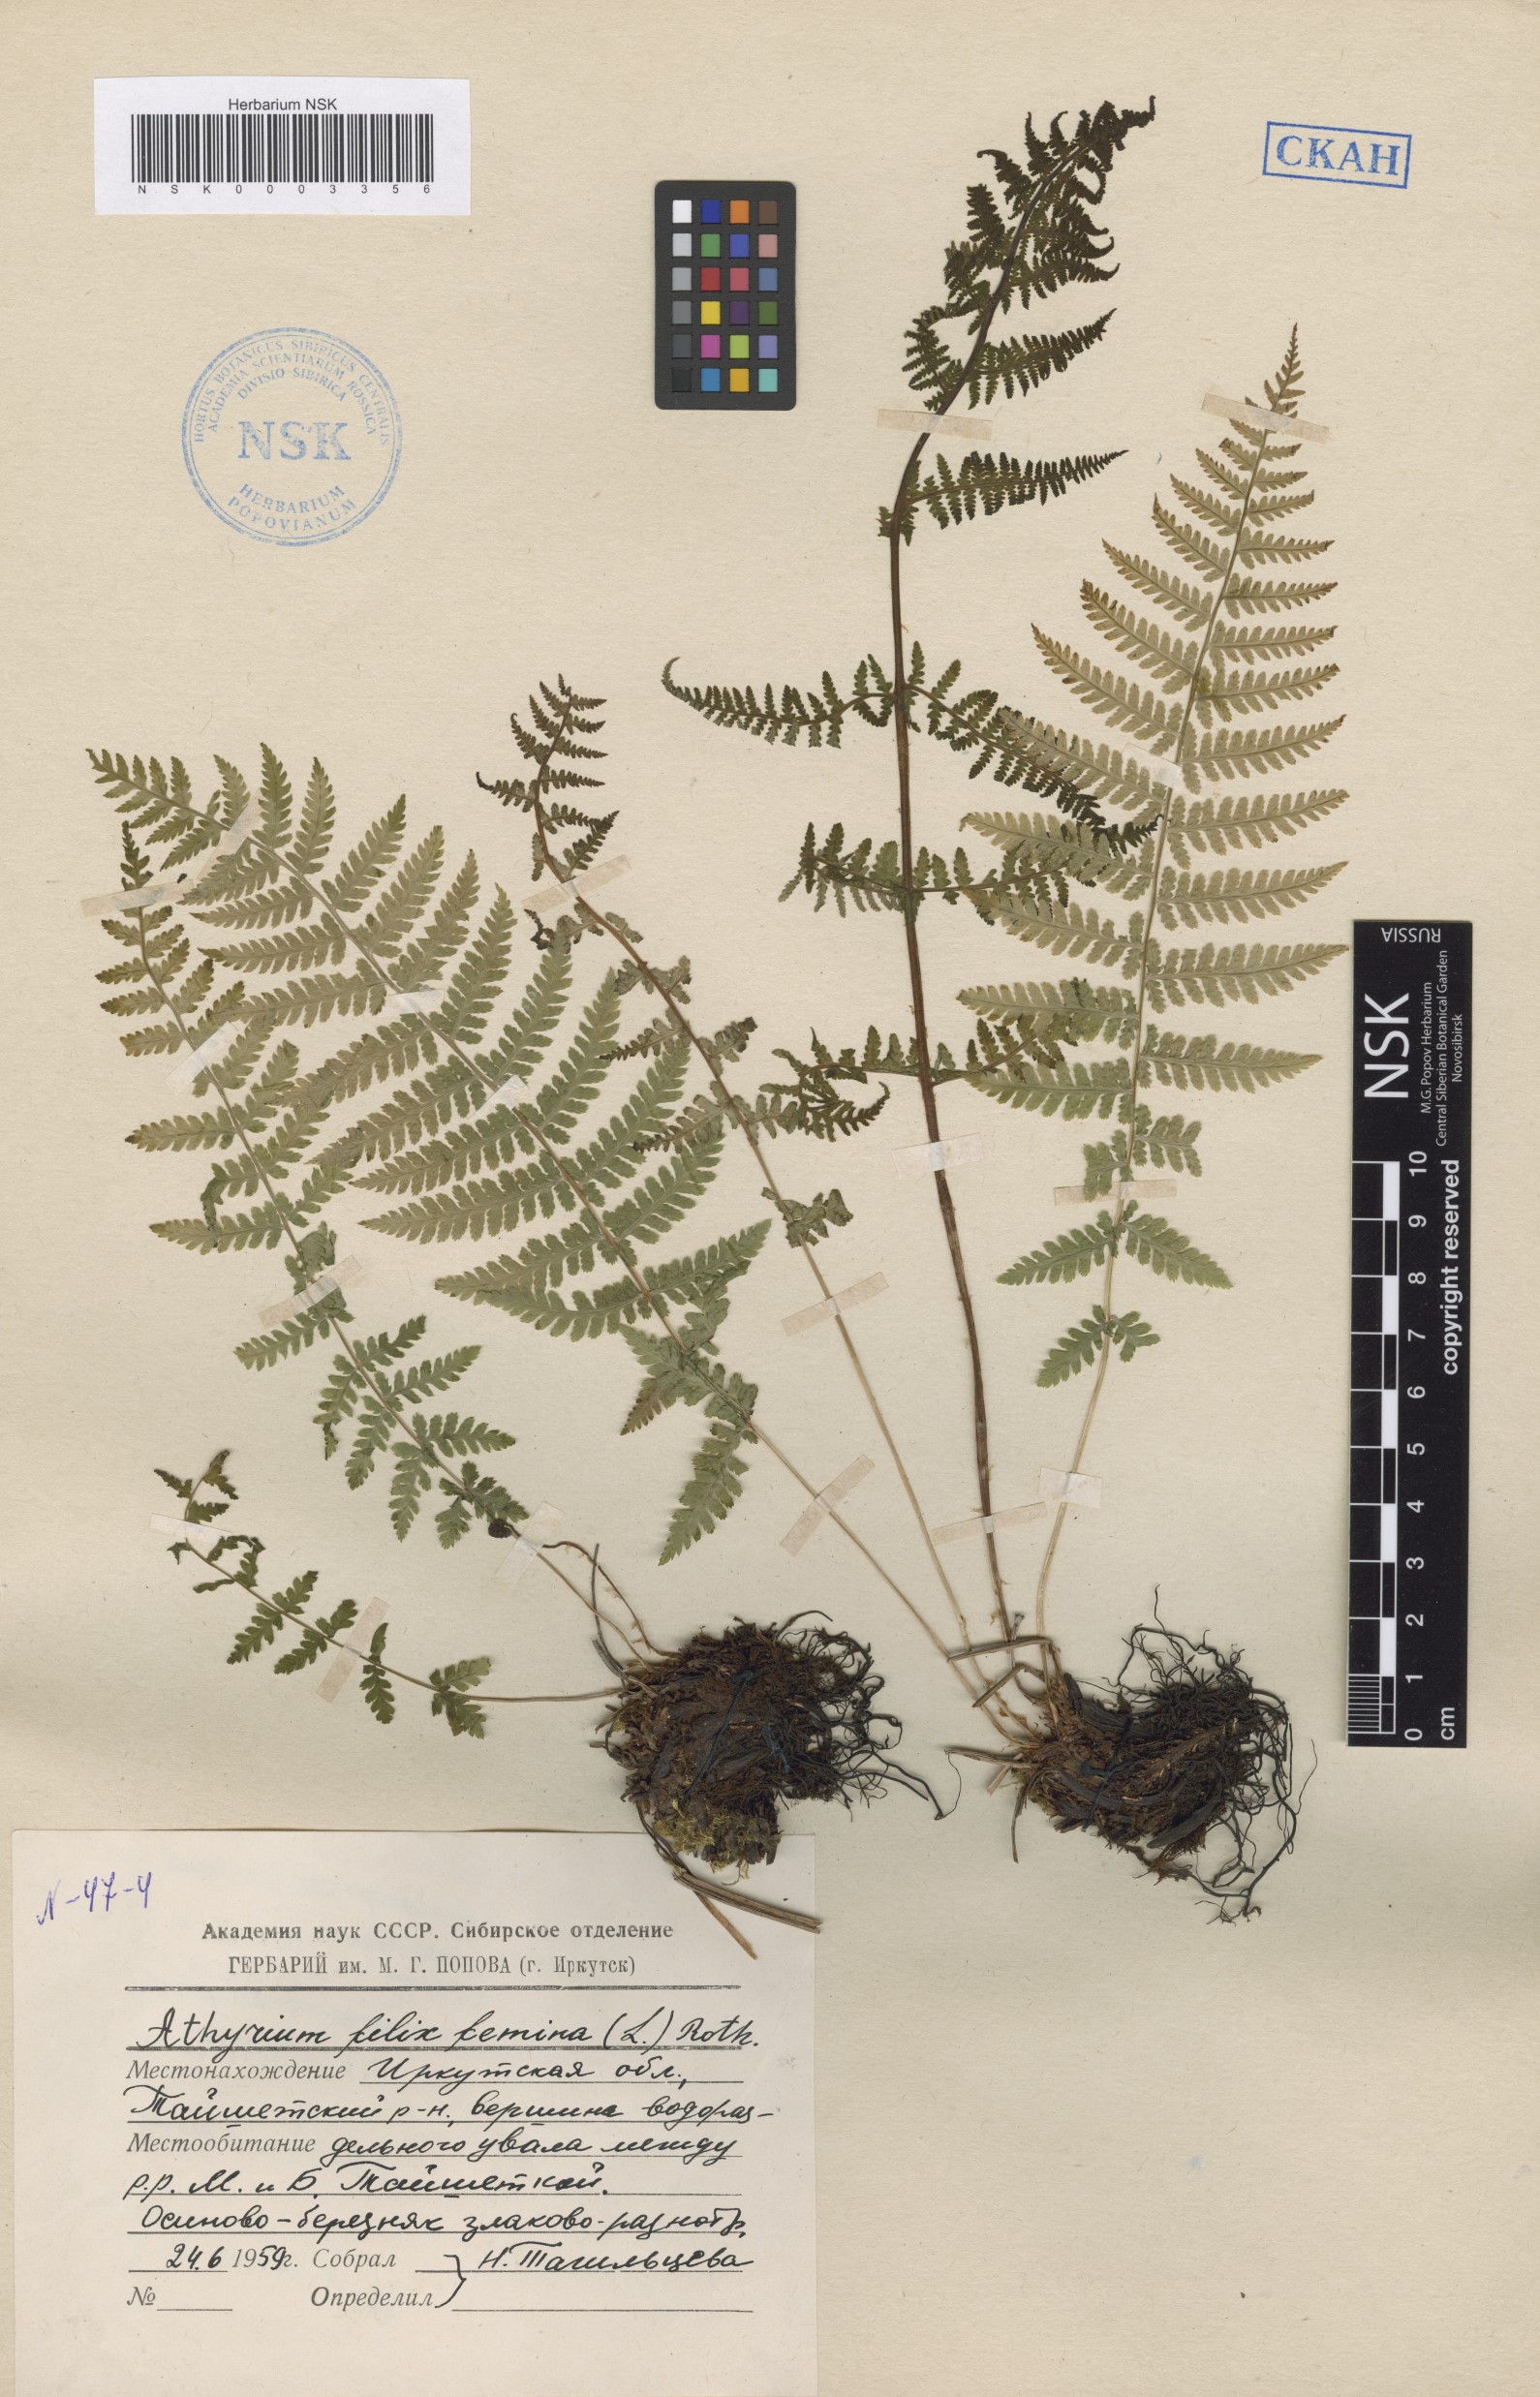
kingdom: Plantae
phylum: Tracheophyta
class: Polypodiopsida
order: Polypodiales
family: Athyriaceae
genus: Athyrium
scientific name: Athyrium filix-femina
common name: Lady fern
